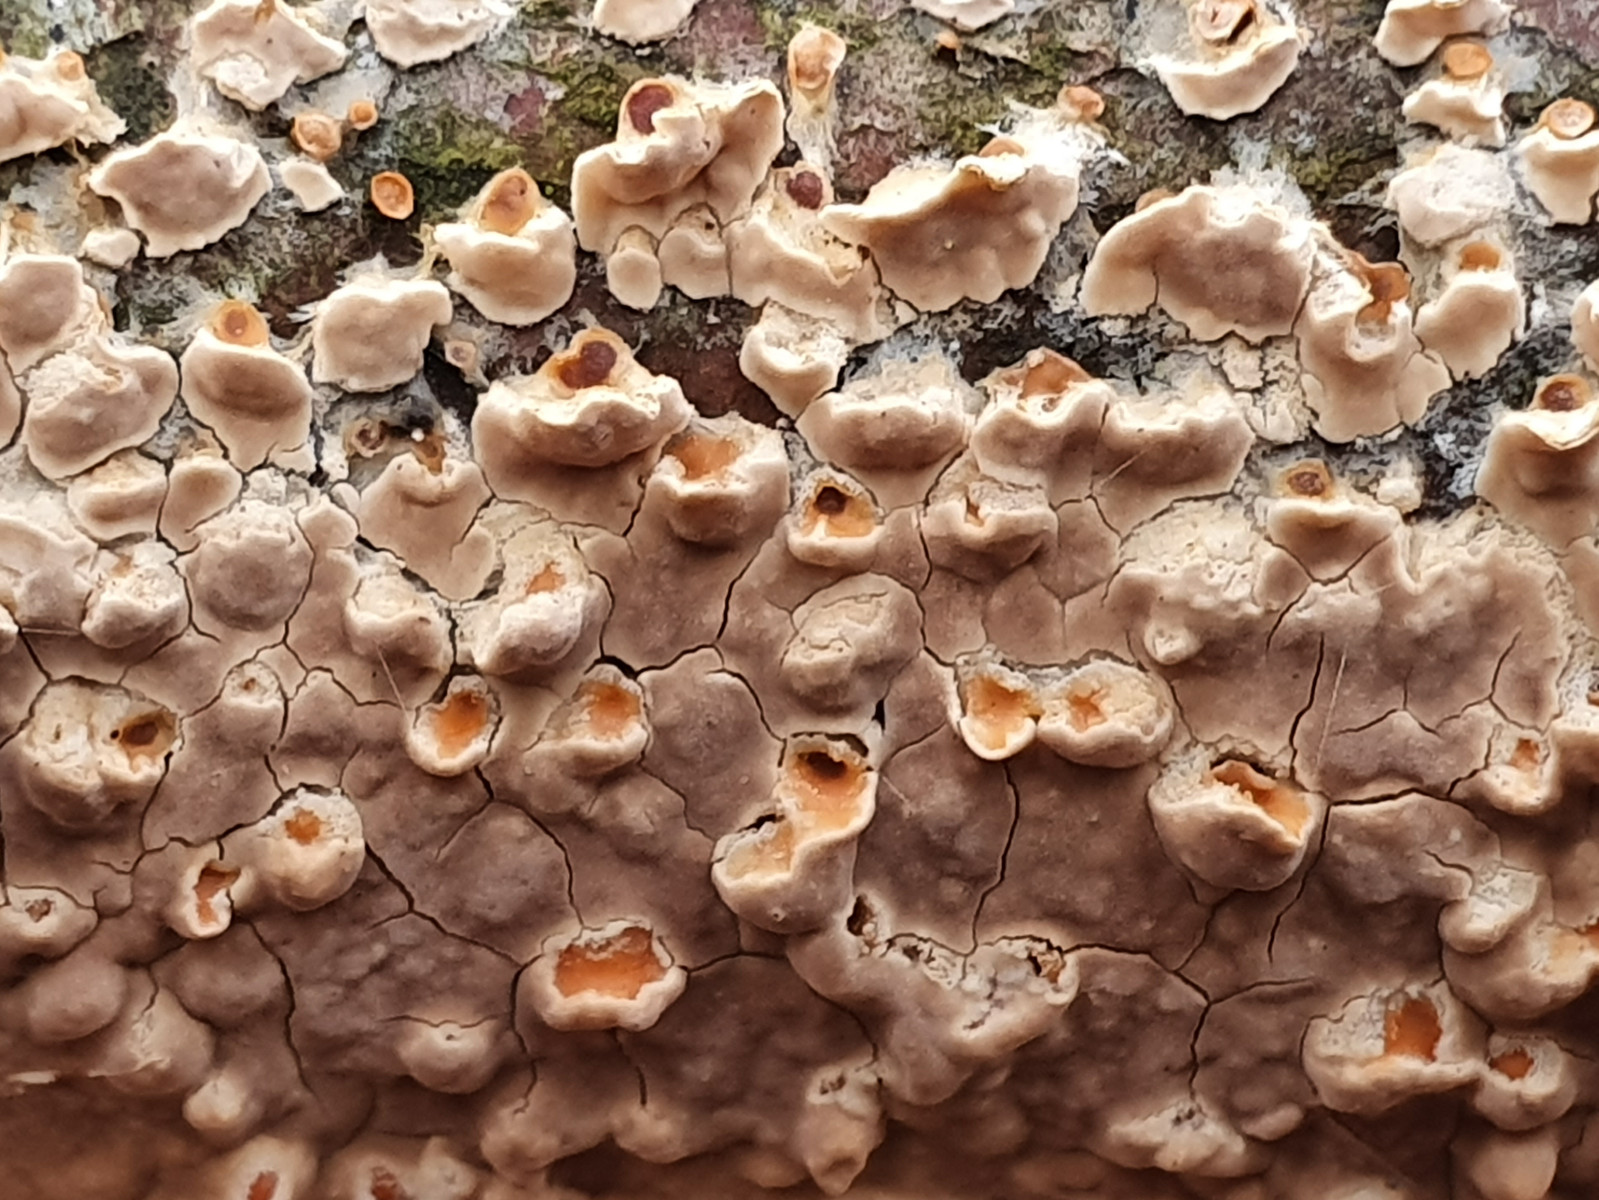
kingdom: Fungi
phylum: Basidiomycota
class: Agaricomycetes
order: Agaricales
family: Physalacriaceae
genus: Cylindrobasidium
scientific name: Cylindrobasidium evolvens
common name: sprækkehinde
